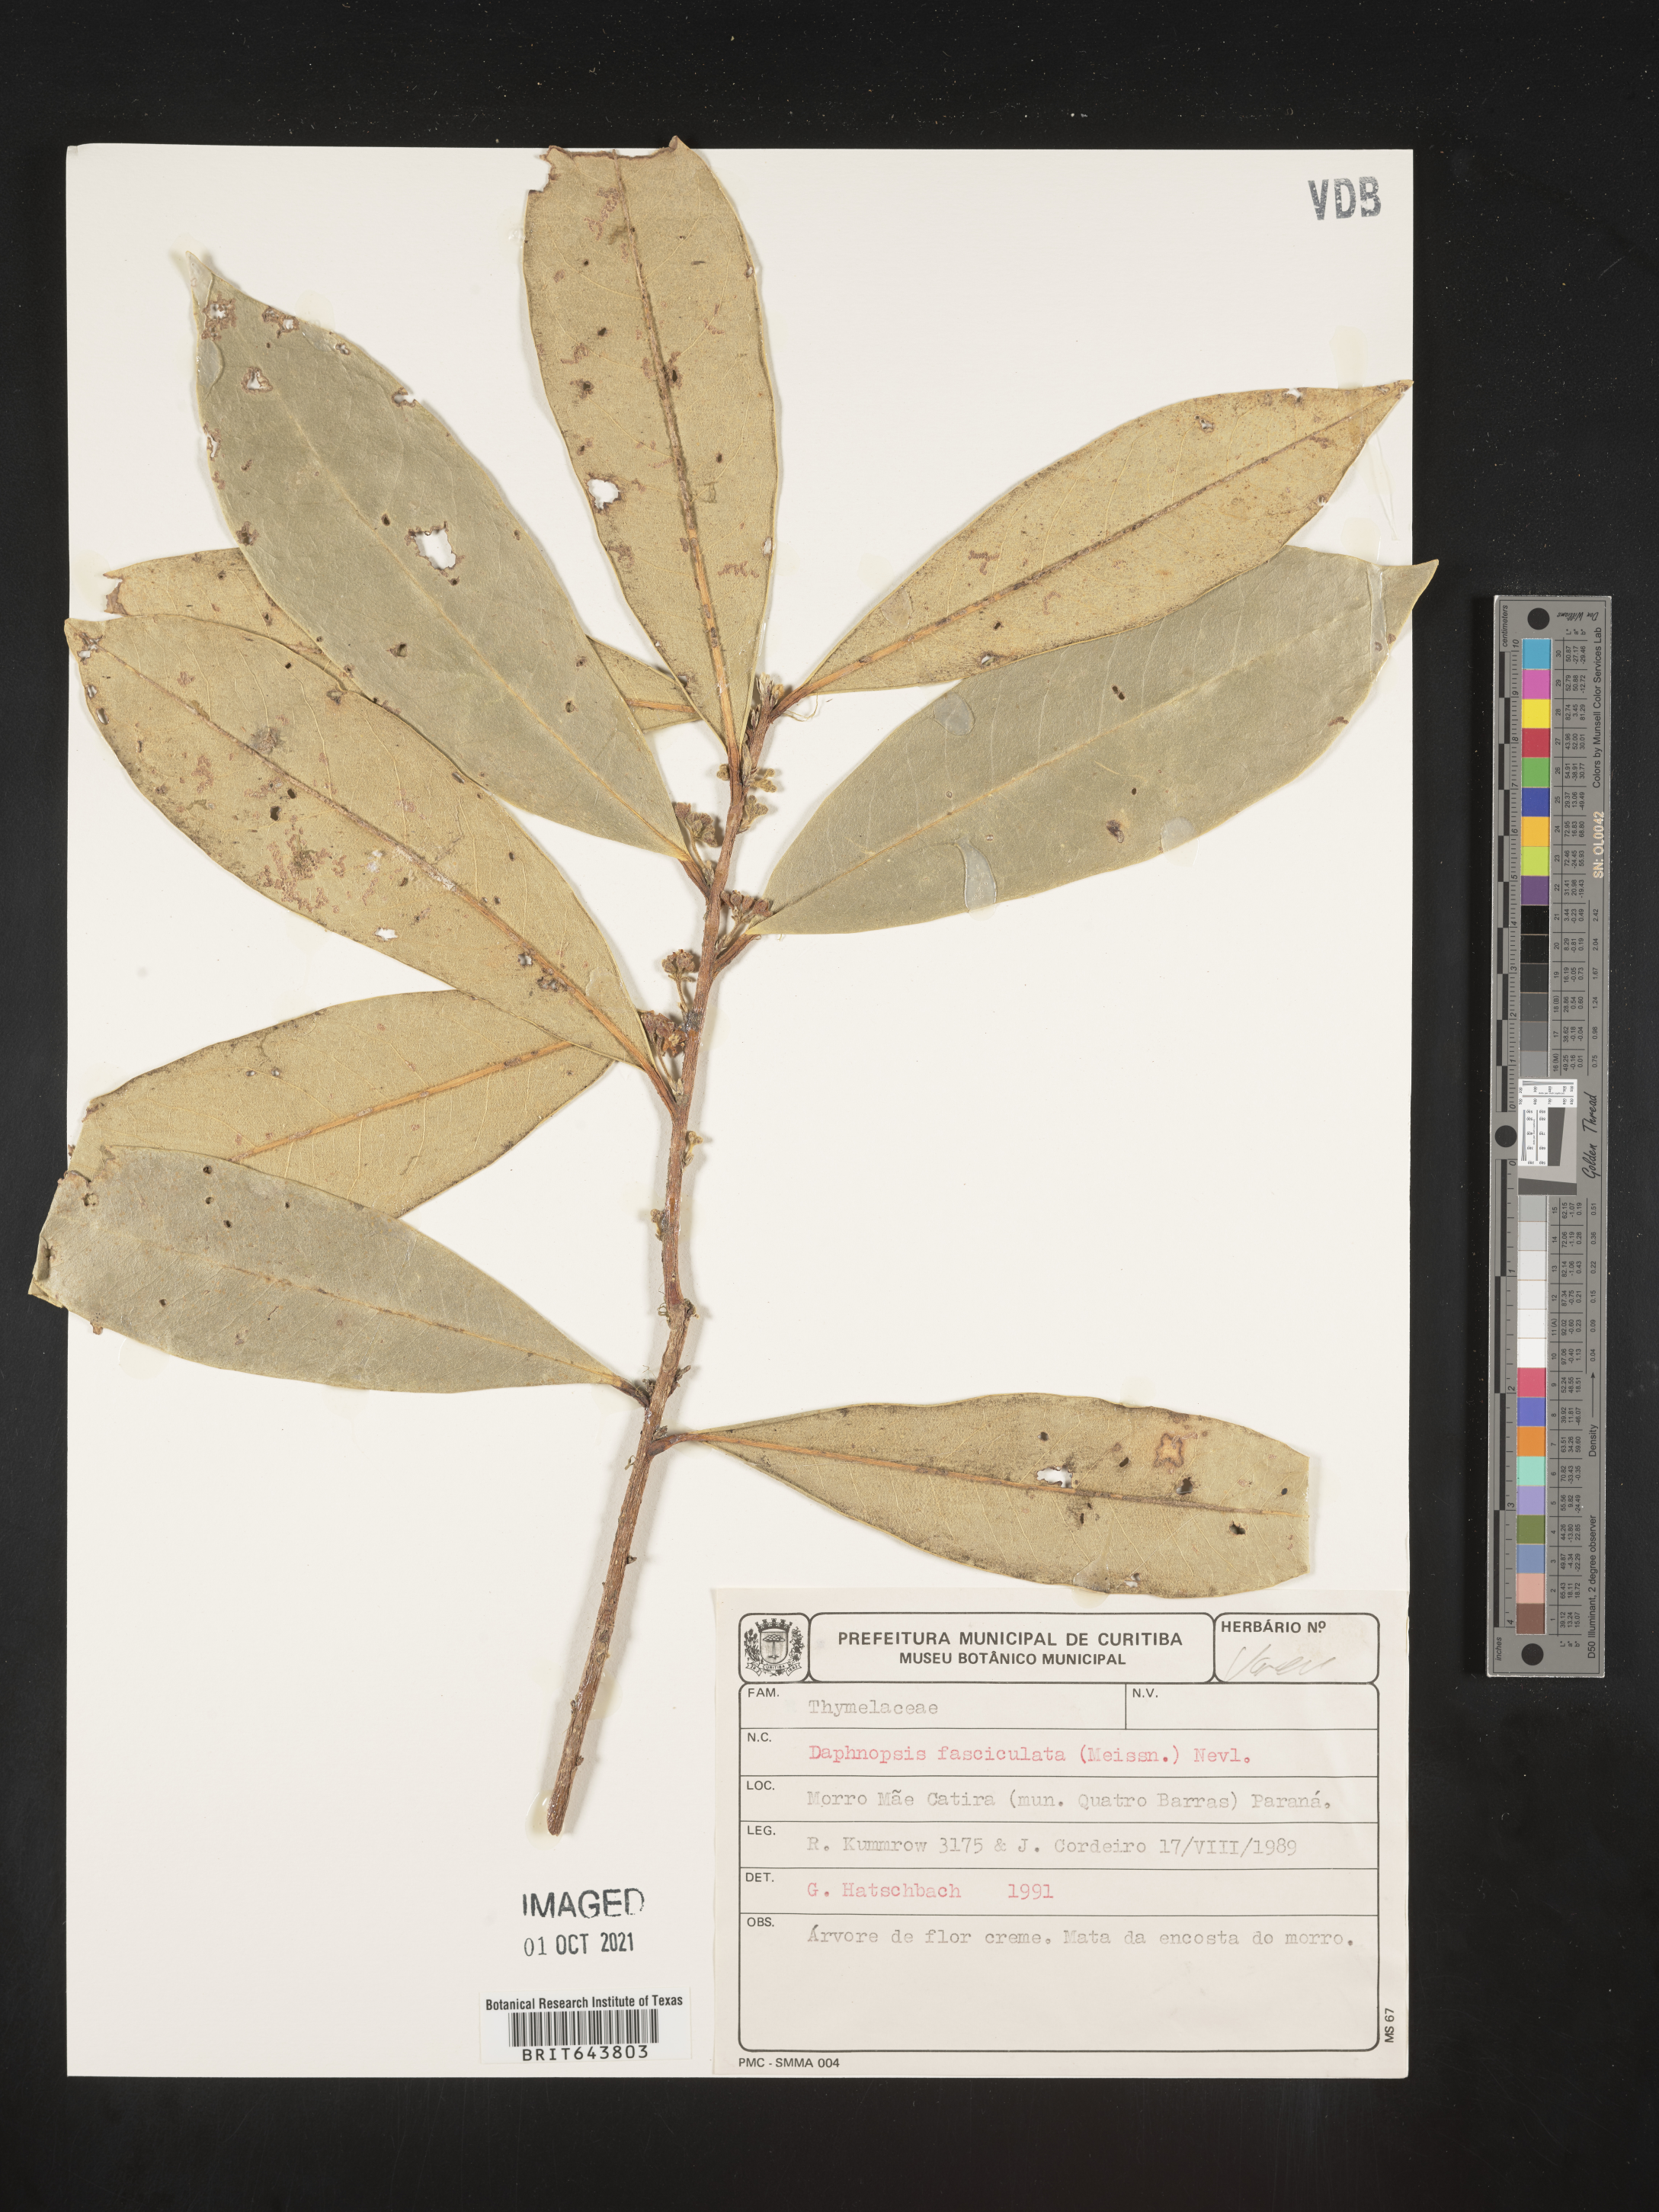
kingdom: Plantae
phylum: Tracheophyta
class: Magnoliopsida
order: Malvales
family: Thymelaeaceae
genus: Daphnopsis
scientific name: Daphnopsis
